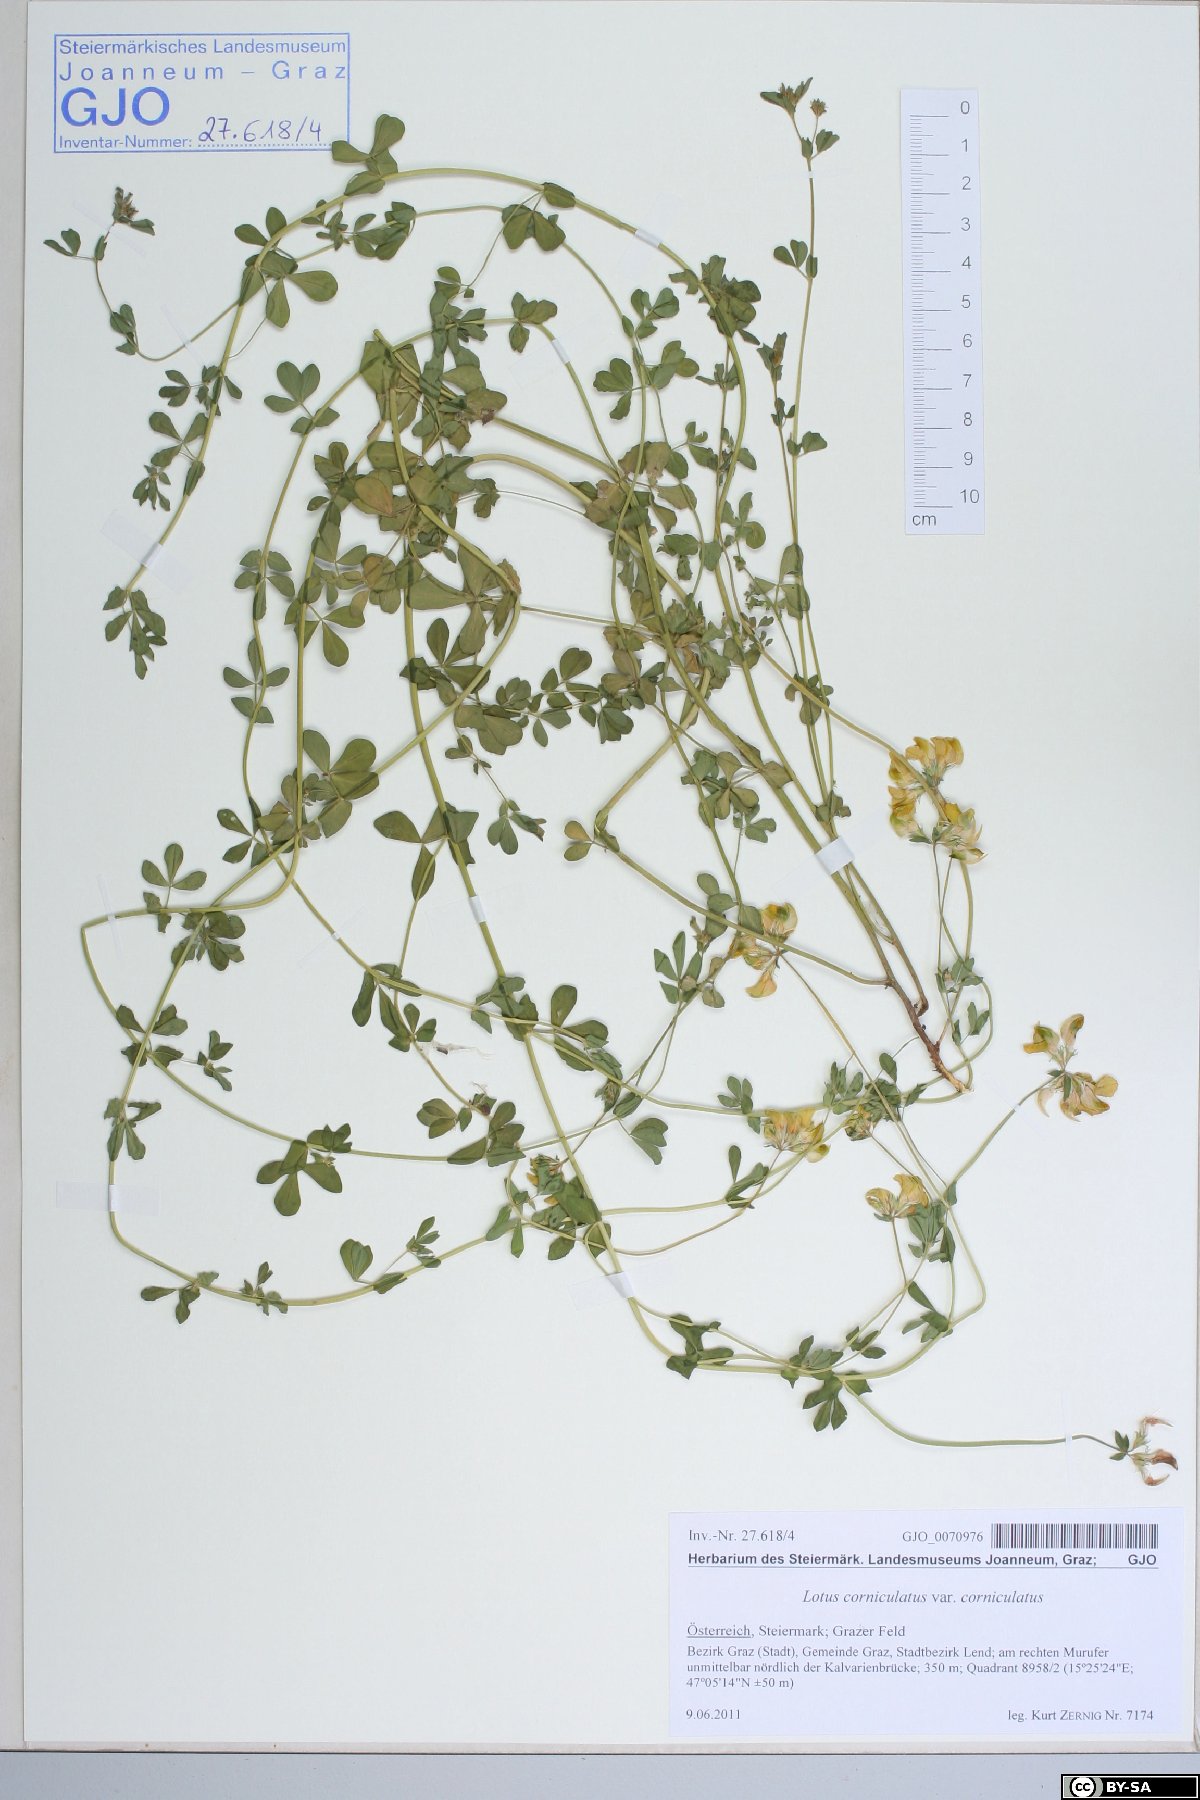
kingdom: Plantae
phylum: Tracheophyta
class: Magnoliopsida
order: Fabales
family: Fabaceae
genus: Lotus
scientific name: Lotus corniculatus
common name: Common bird's-foot-trefoil
